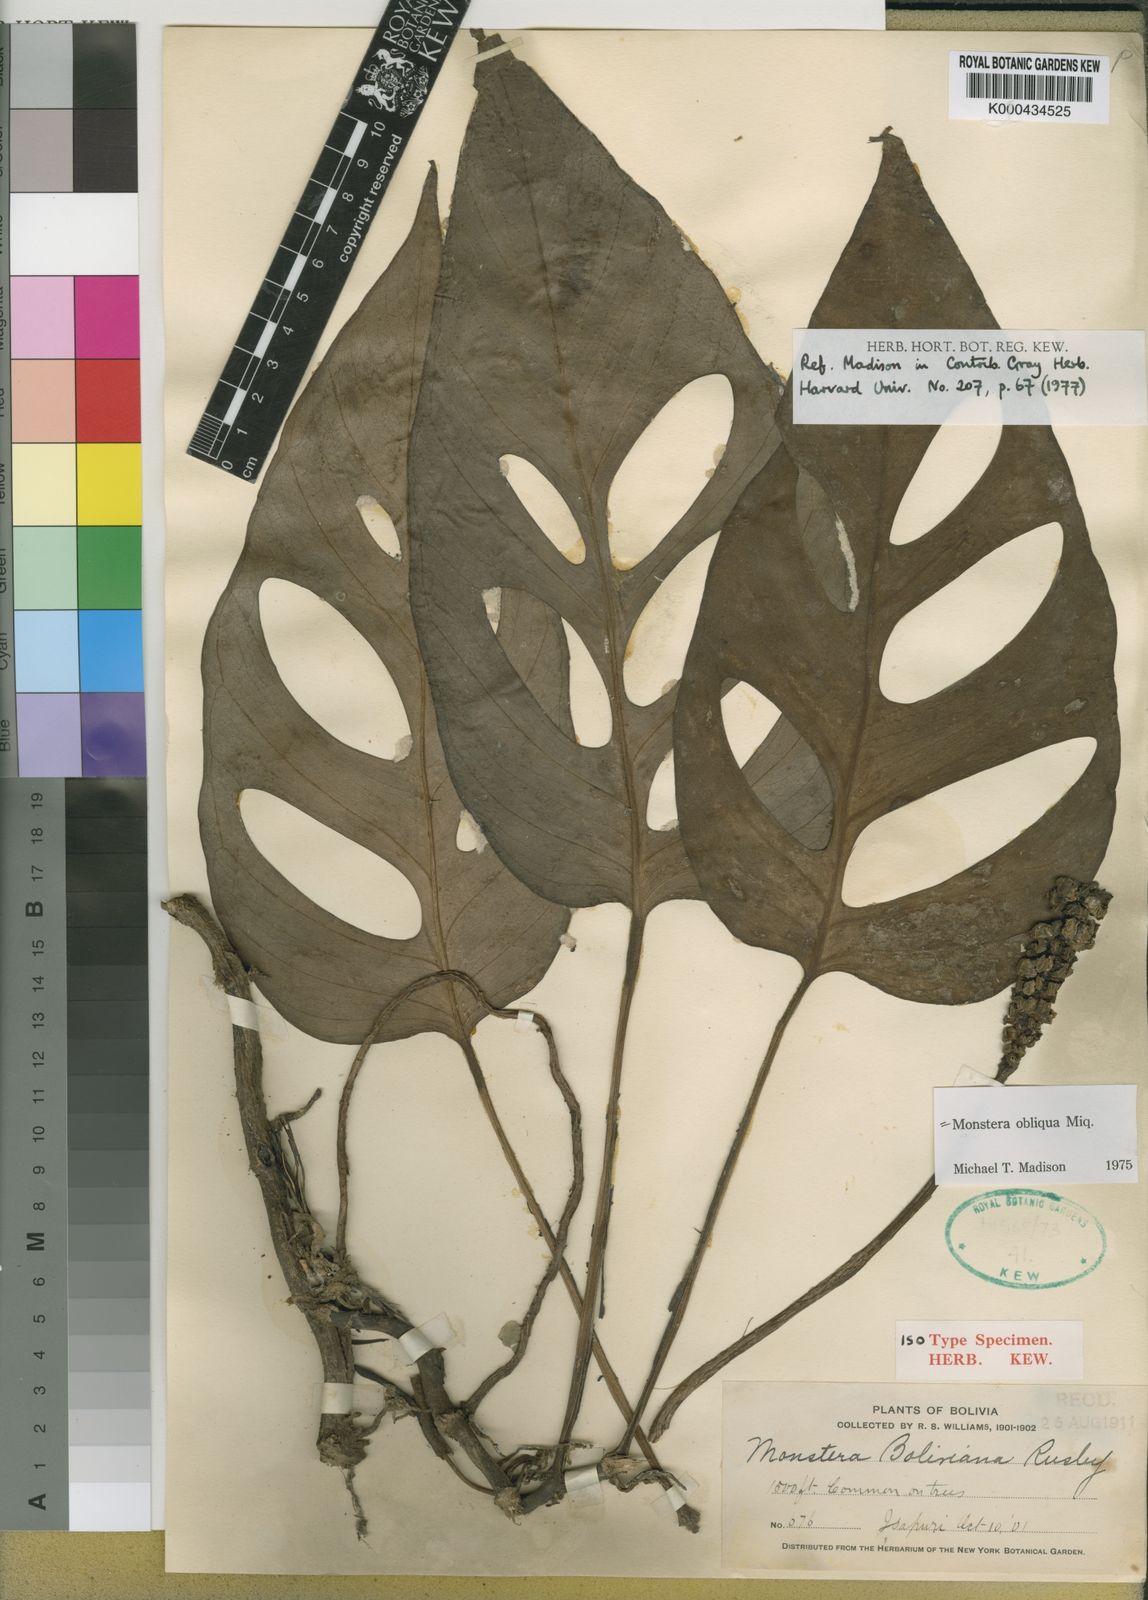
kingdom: Plantae
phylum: Tracheophyta
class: Liliopsida
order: Alismatales
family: Araceae
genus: Monstera
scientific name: Monstera obliqua
